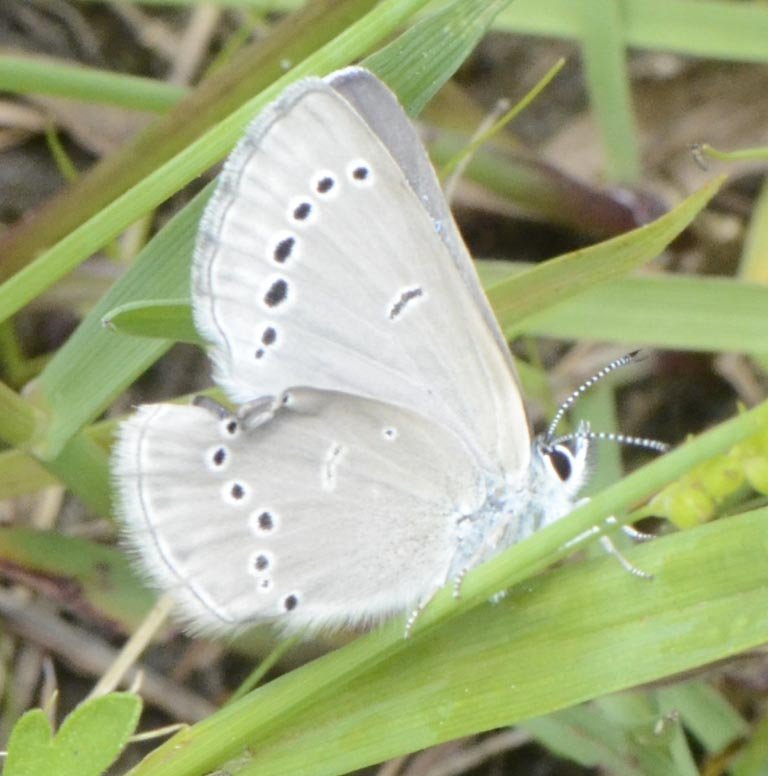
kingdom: Animalia
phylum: Arthropoda
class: Insecta
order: Lepidoptera
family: Lycaenidae
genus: Glaucopsyche
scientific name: Glaucopsyche lygdamus
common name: Silvery Blue
